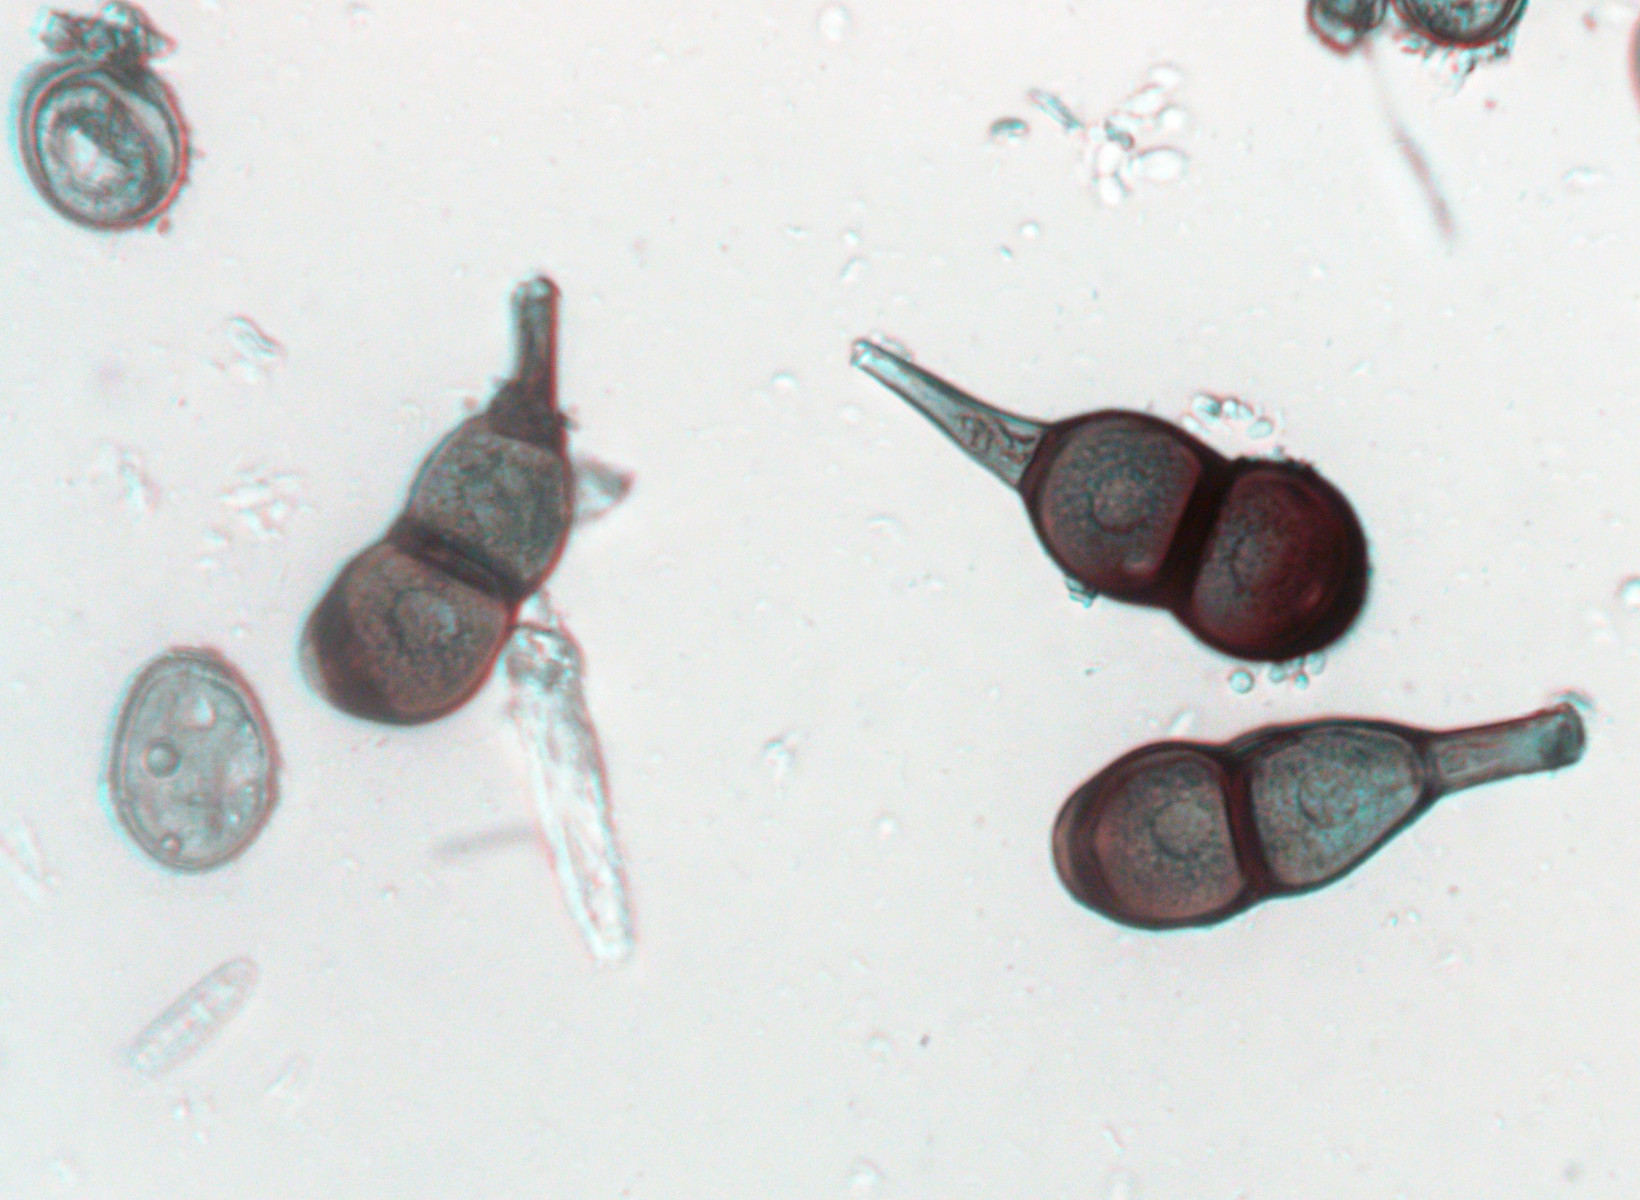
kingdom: Fungi
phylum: Basidiomycota
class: Pucciniomycetes
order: Pucciniales
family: Pucciniaceae
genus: Puccinia
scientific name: Puccinia convolvuli
